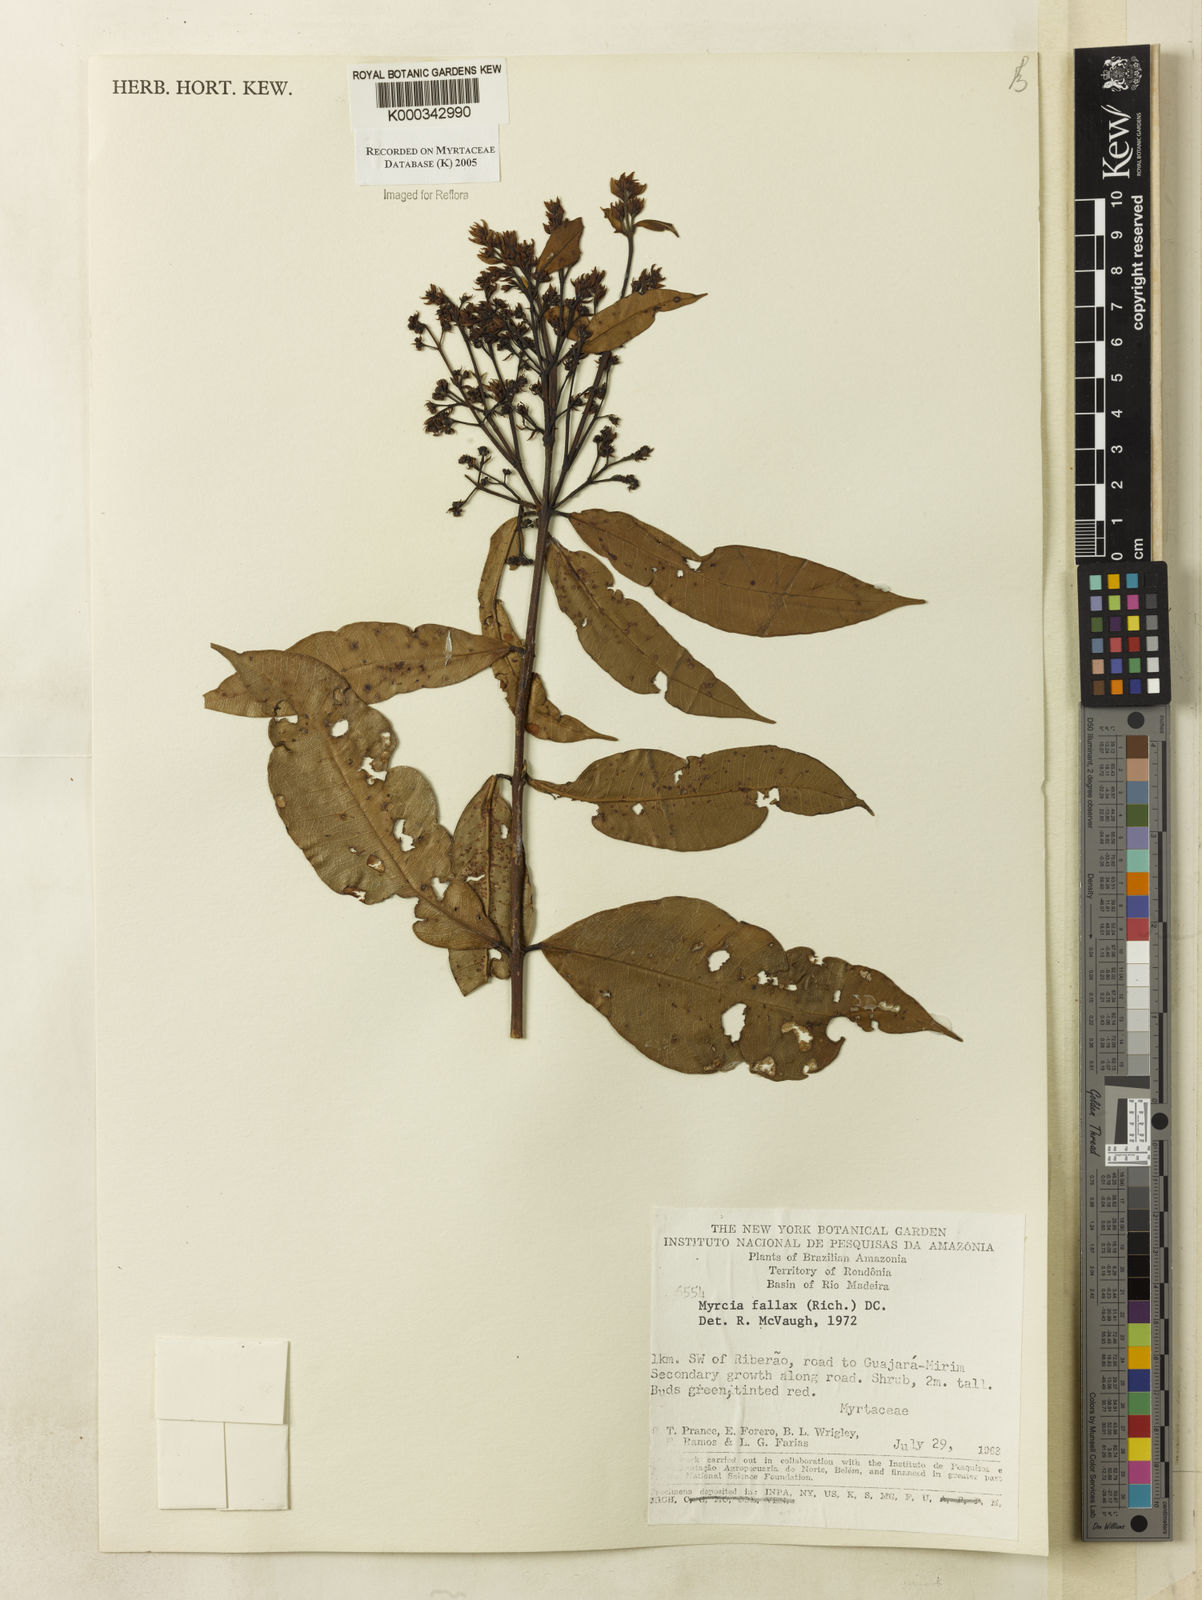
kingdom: Plantae
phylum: Tracheophyta
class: Magnoliopsida
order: Myrtales
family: Myrtaceae
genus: Myrcia
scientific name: Myrcia splendens
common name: Surinam cherry
